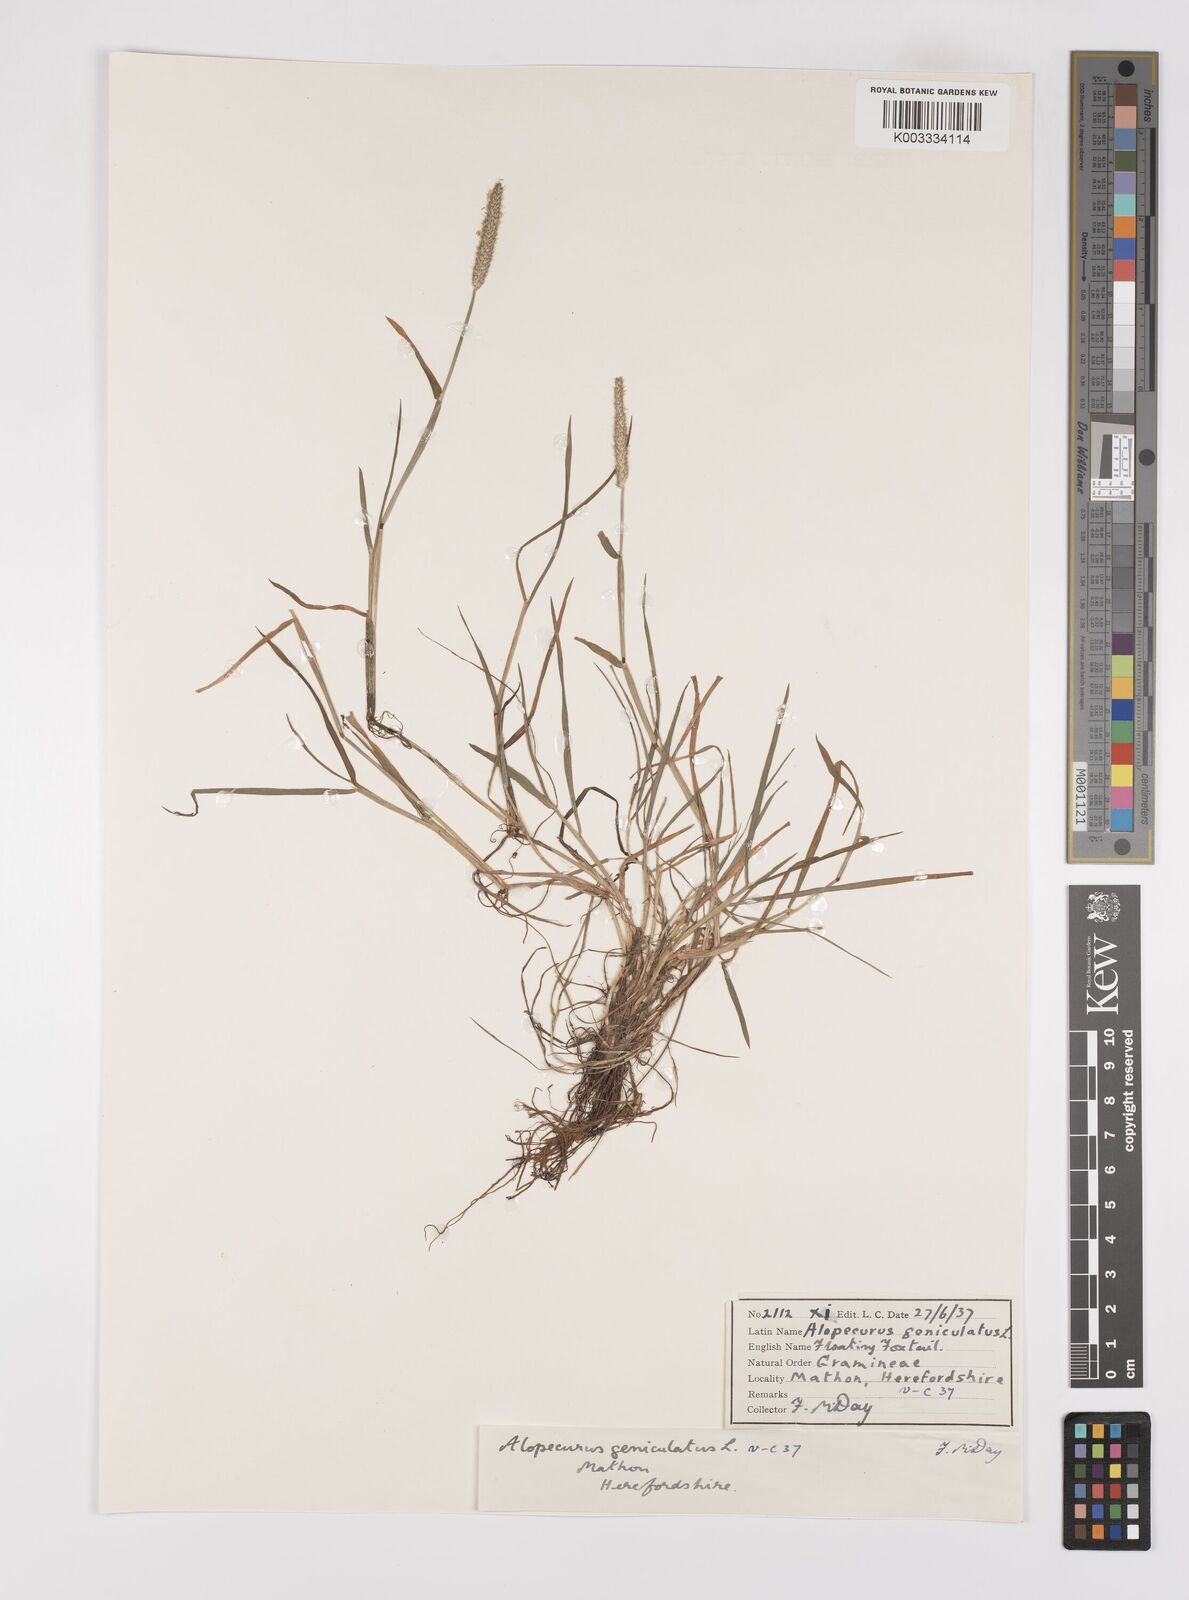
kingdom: Plantae
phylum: Tracheophyta
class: Liliopsida
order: Poales
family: Poaceae
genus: Alopecurus
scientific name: Alopecurus geniculatus
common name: Water foxtail
